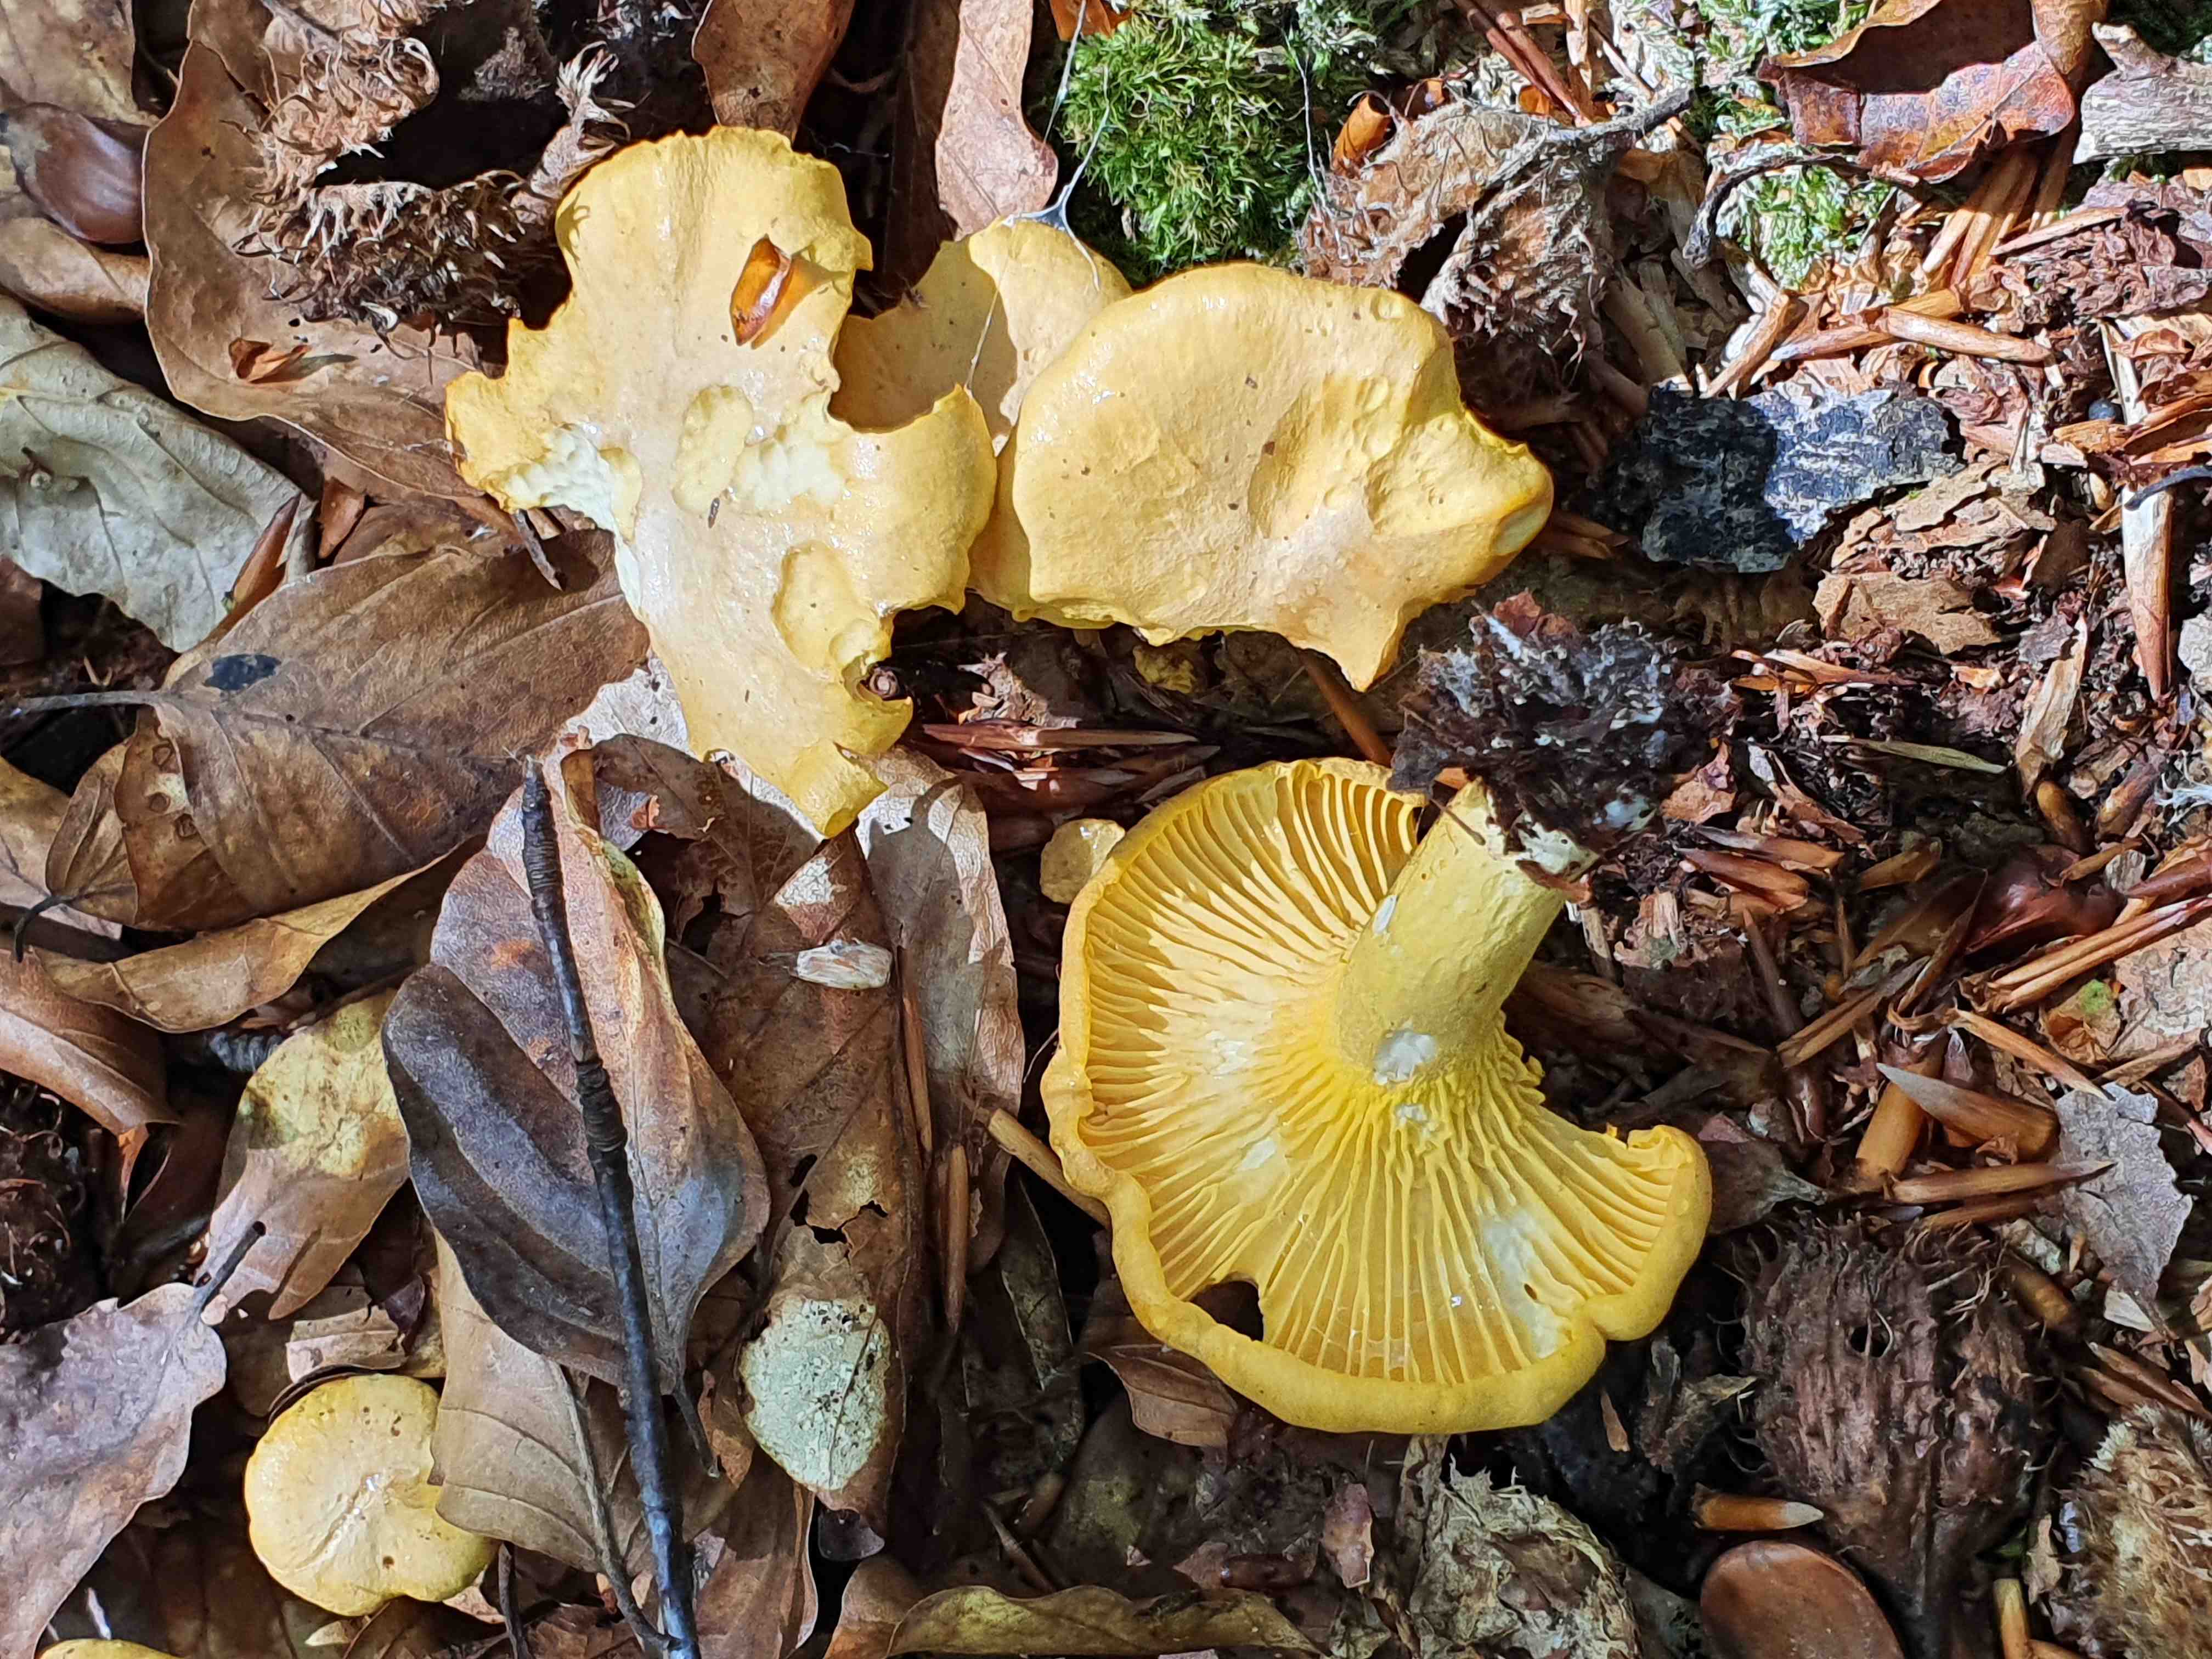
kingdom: Fungi
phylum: Basidiomycota
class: Agaricomycetes
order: Cantharellales
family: Hydnaceae
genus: Cantharellus
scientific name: Cantharellus
